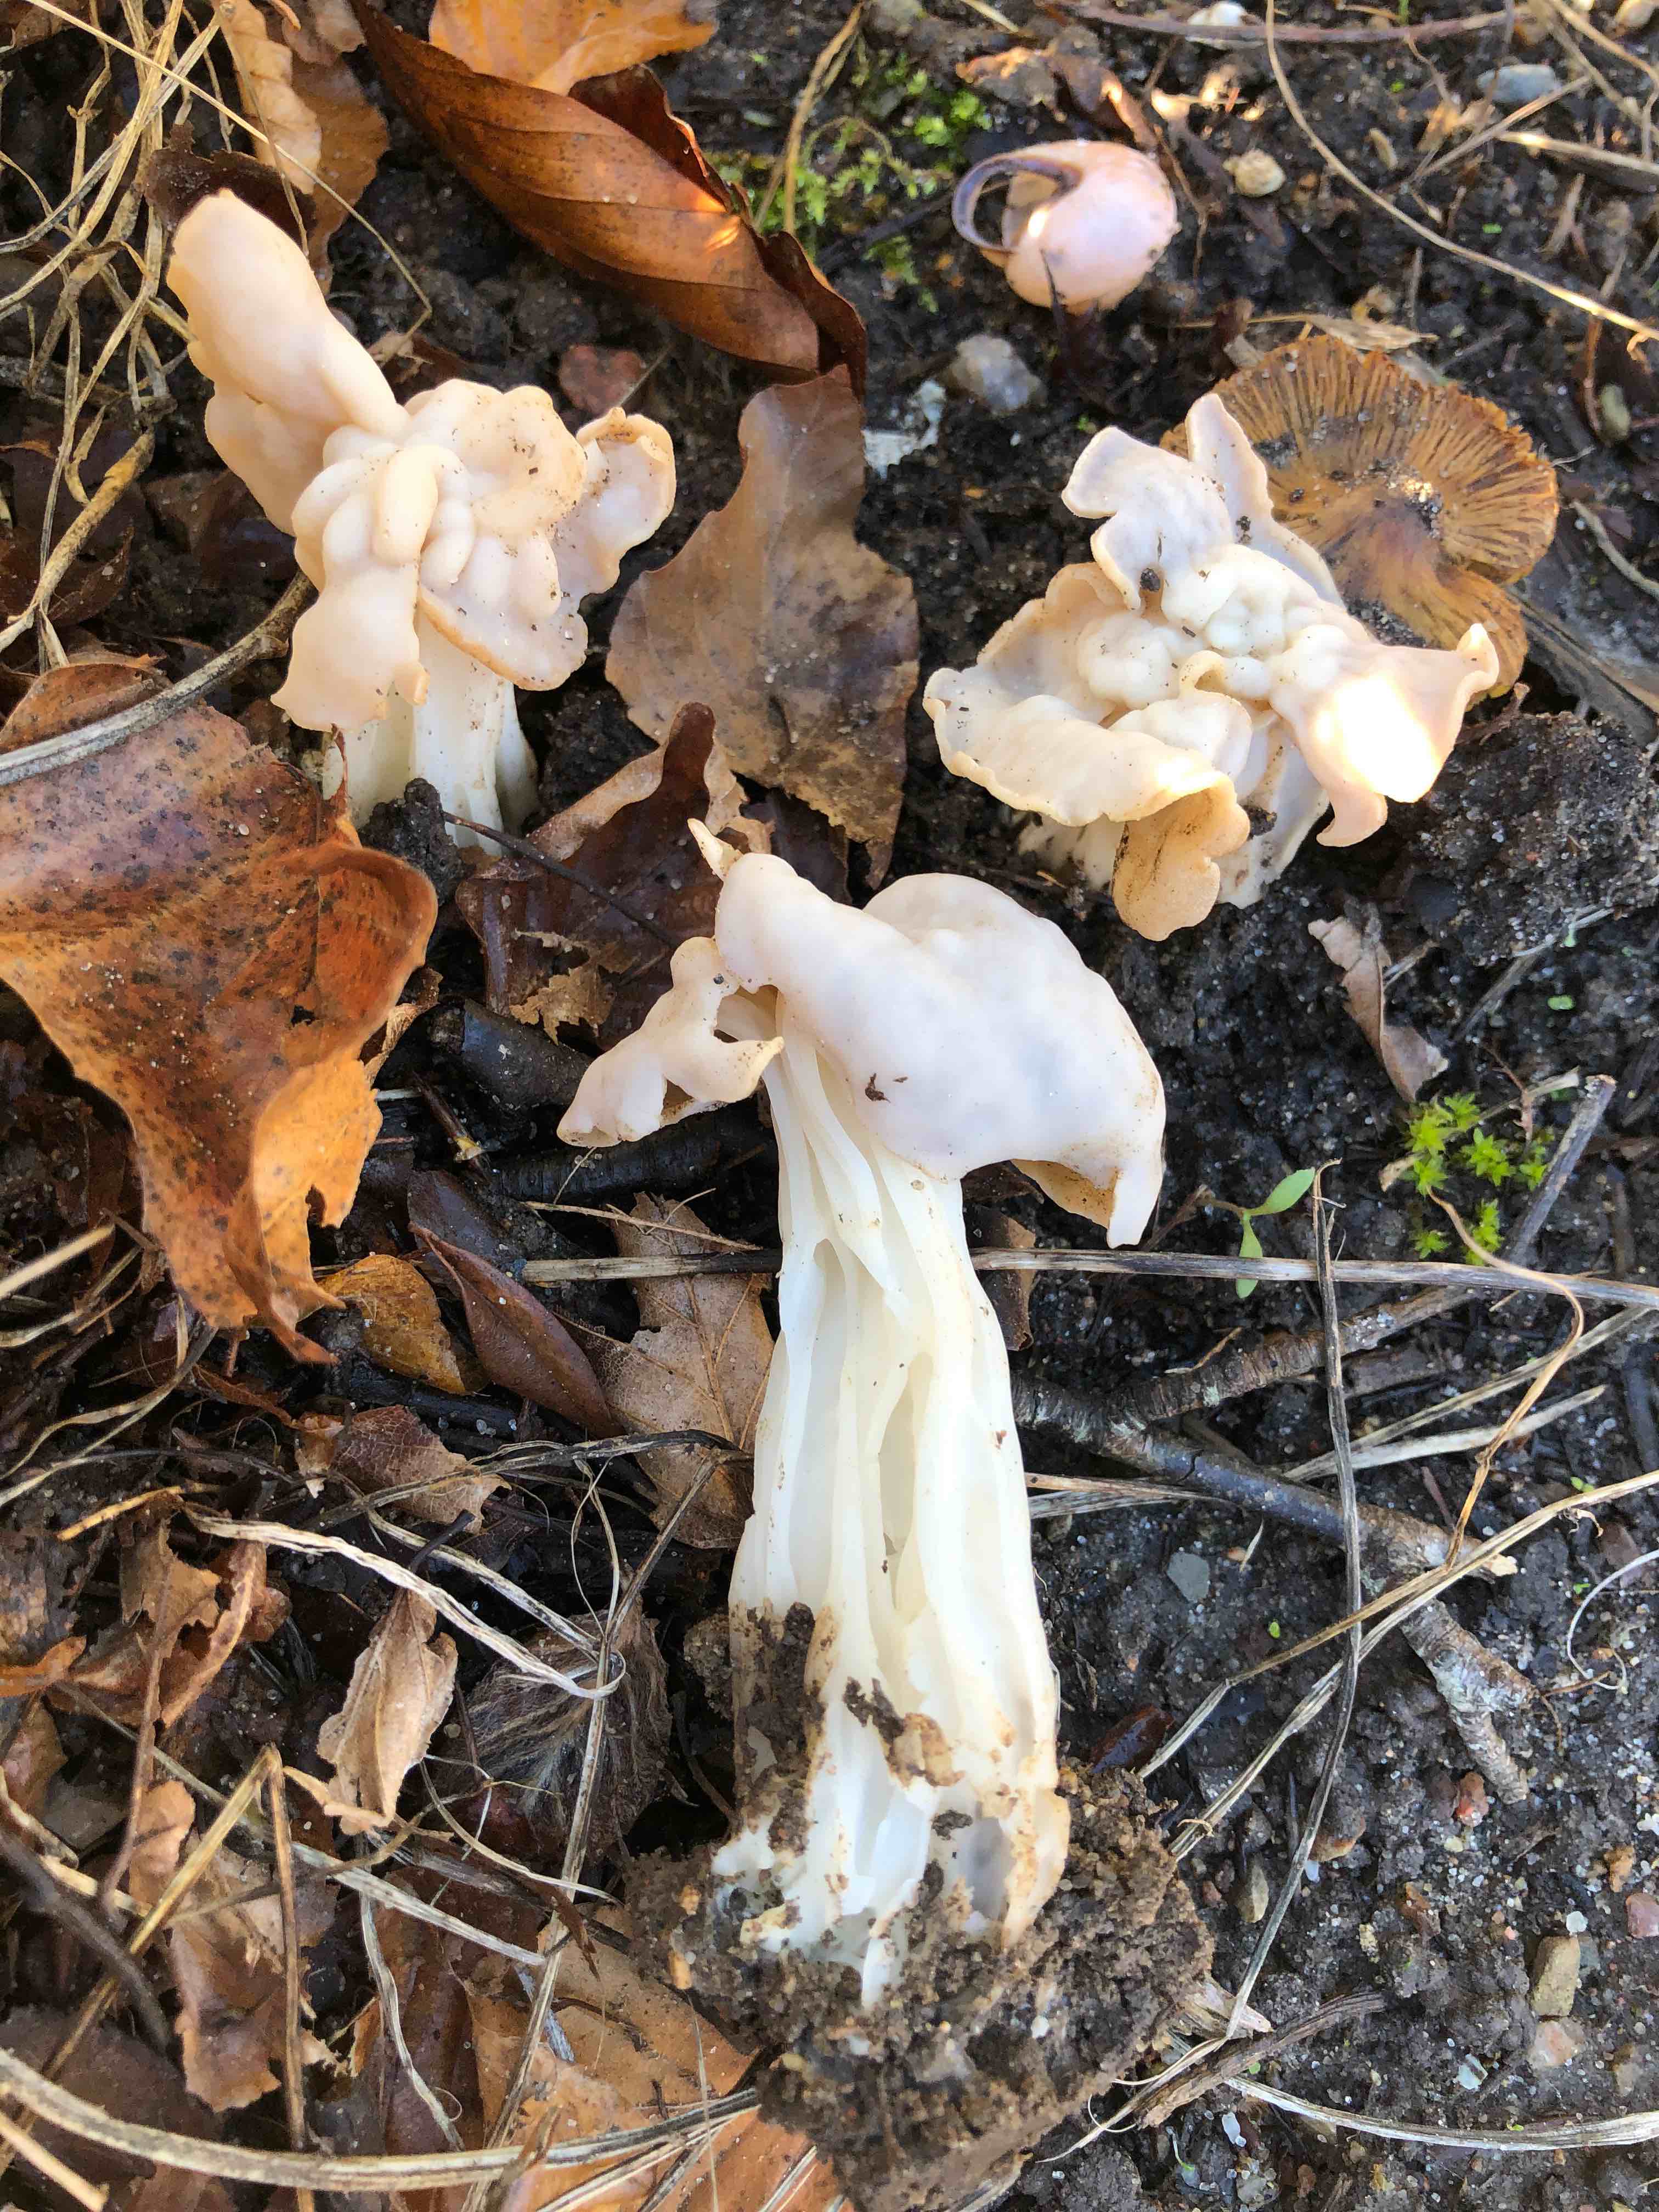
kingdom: Fungi
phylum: Ascomycota
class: Pezizomycetes
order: Pezizales
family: Helvellaceae
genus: Helvella
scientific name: Helvella crispa
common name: kruset foldhat
